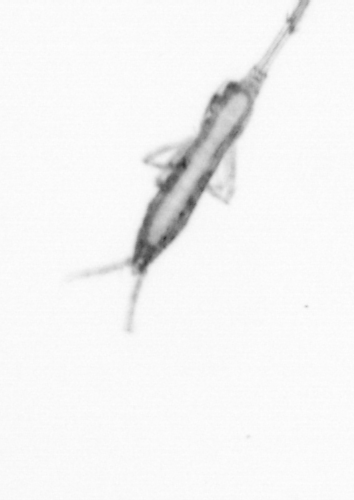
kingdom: Animalia
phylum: Arthropoda
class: Copepoda
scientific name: Copepoda
